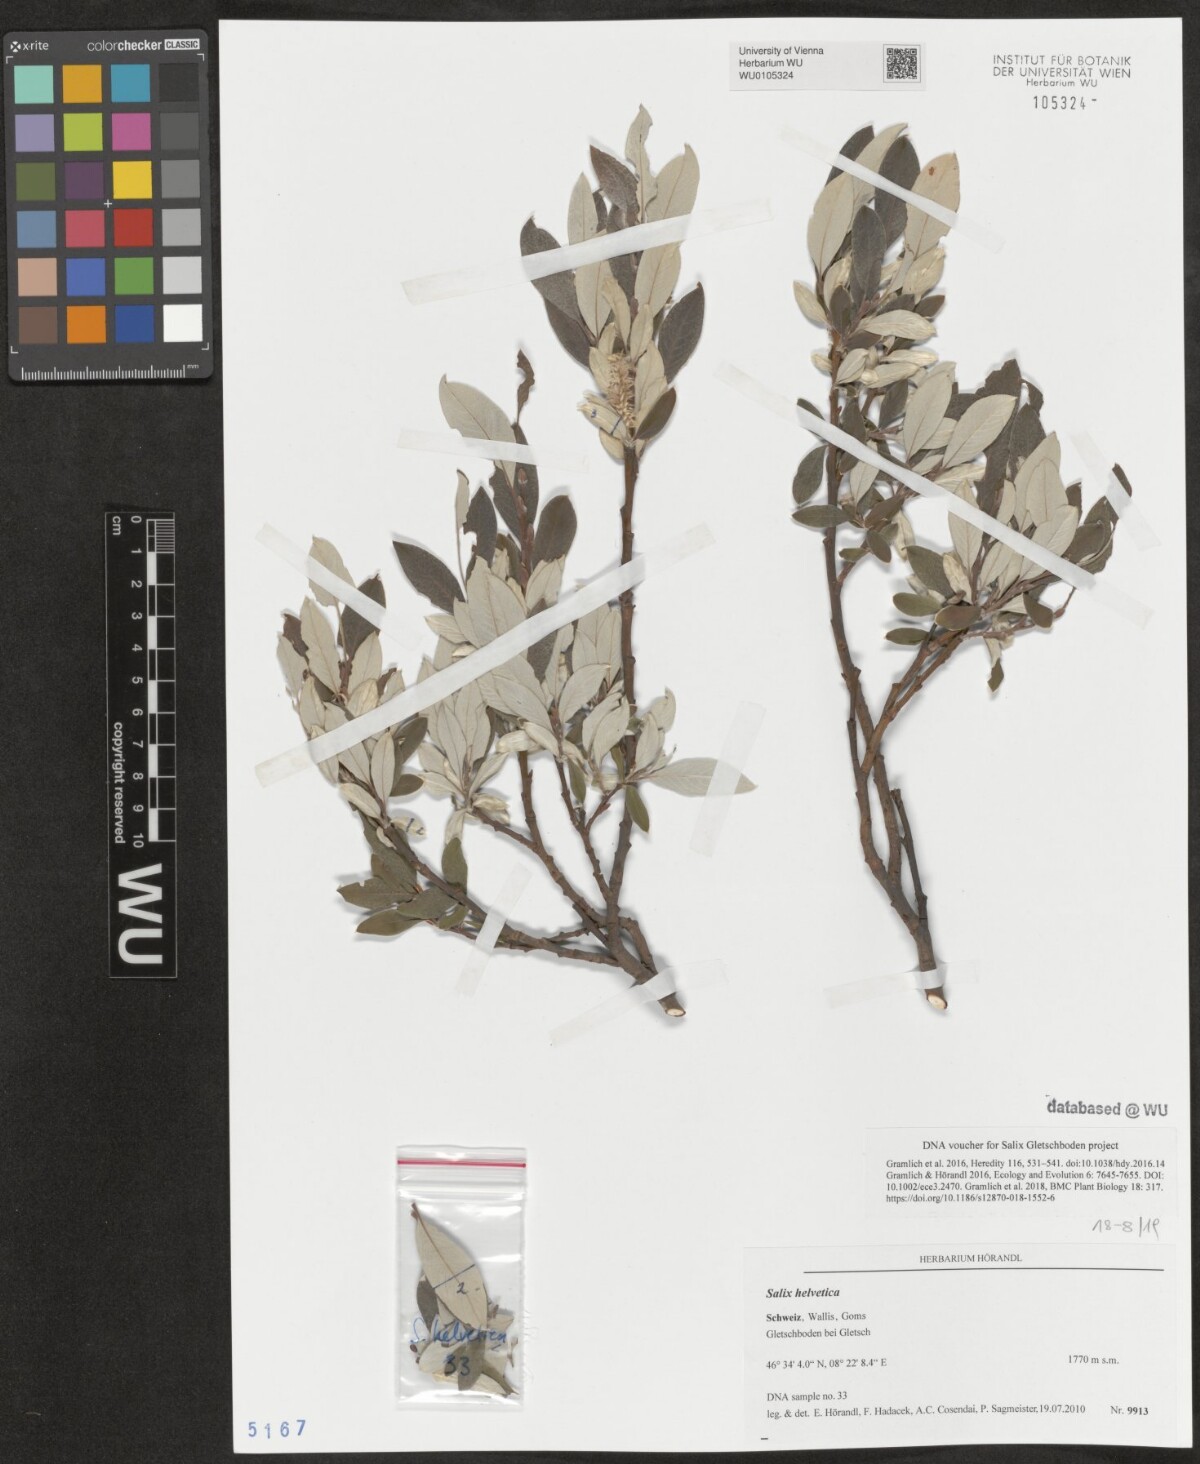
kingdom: Plantae
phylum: Tracheophyta
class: Magnoliopsida
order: Malpighiales
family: Salicaceae
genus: Salix
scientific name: Salix helvetica
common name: Swiss willow
